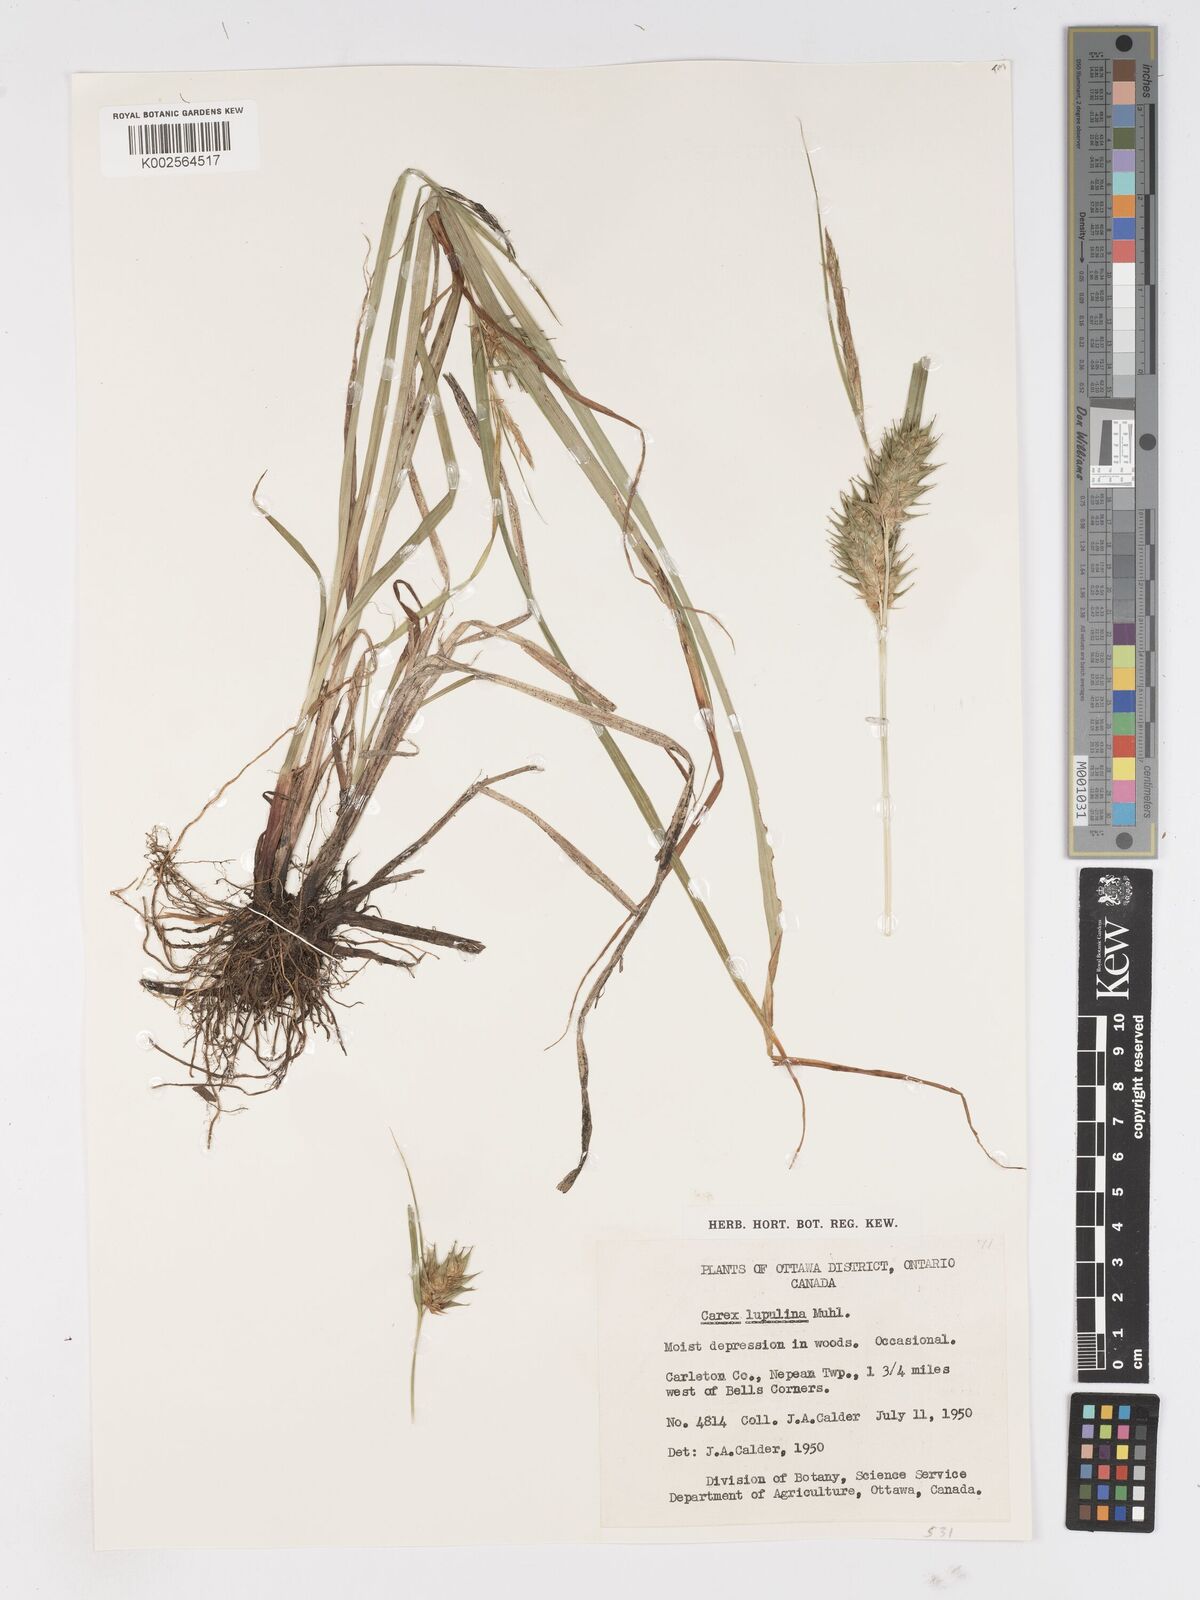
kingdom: Plantae
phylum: Tracheophyta
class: Liliopsida
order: Poales
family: Cyperaceae
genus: Carex
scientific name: Carex lupulina
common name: Hop sedge
